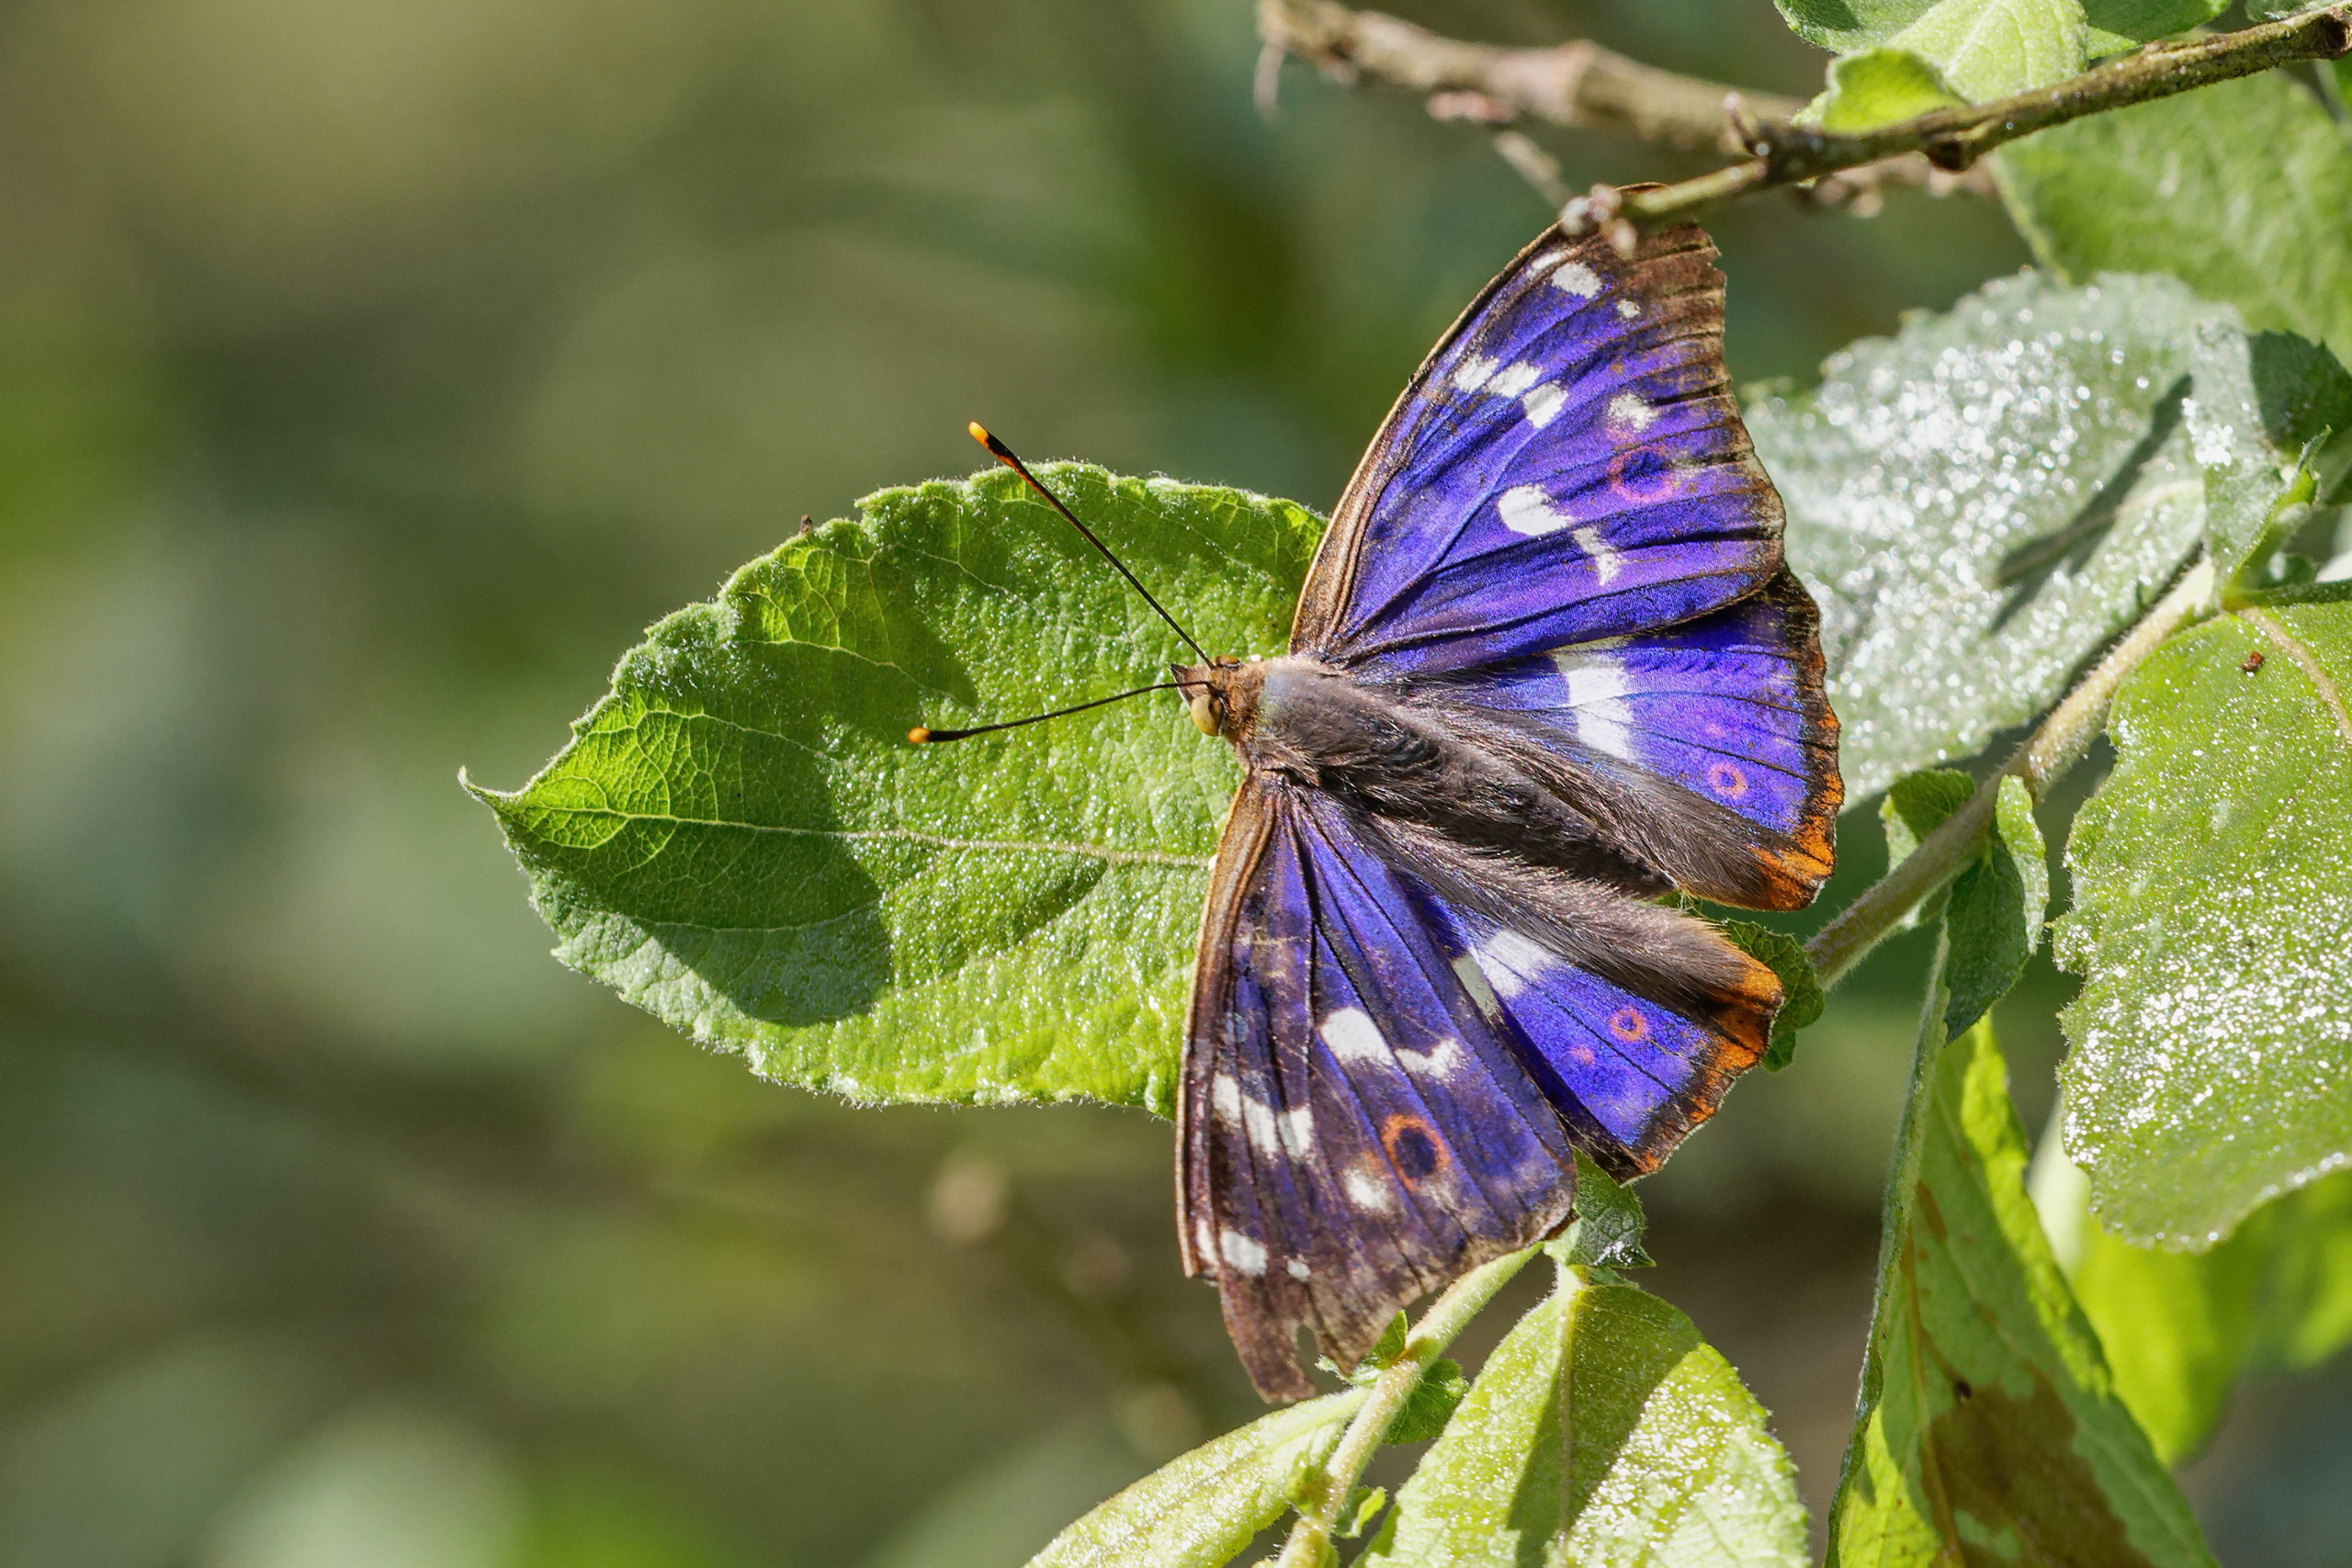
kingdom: Animalia
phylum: Arthropoda
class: Insecta
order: Lepidoptera
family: Nymphalidae
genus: Apatura
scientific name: Apatura ilia
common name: Ilia
